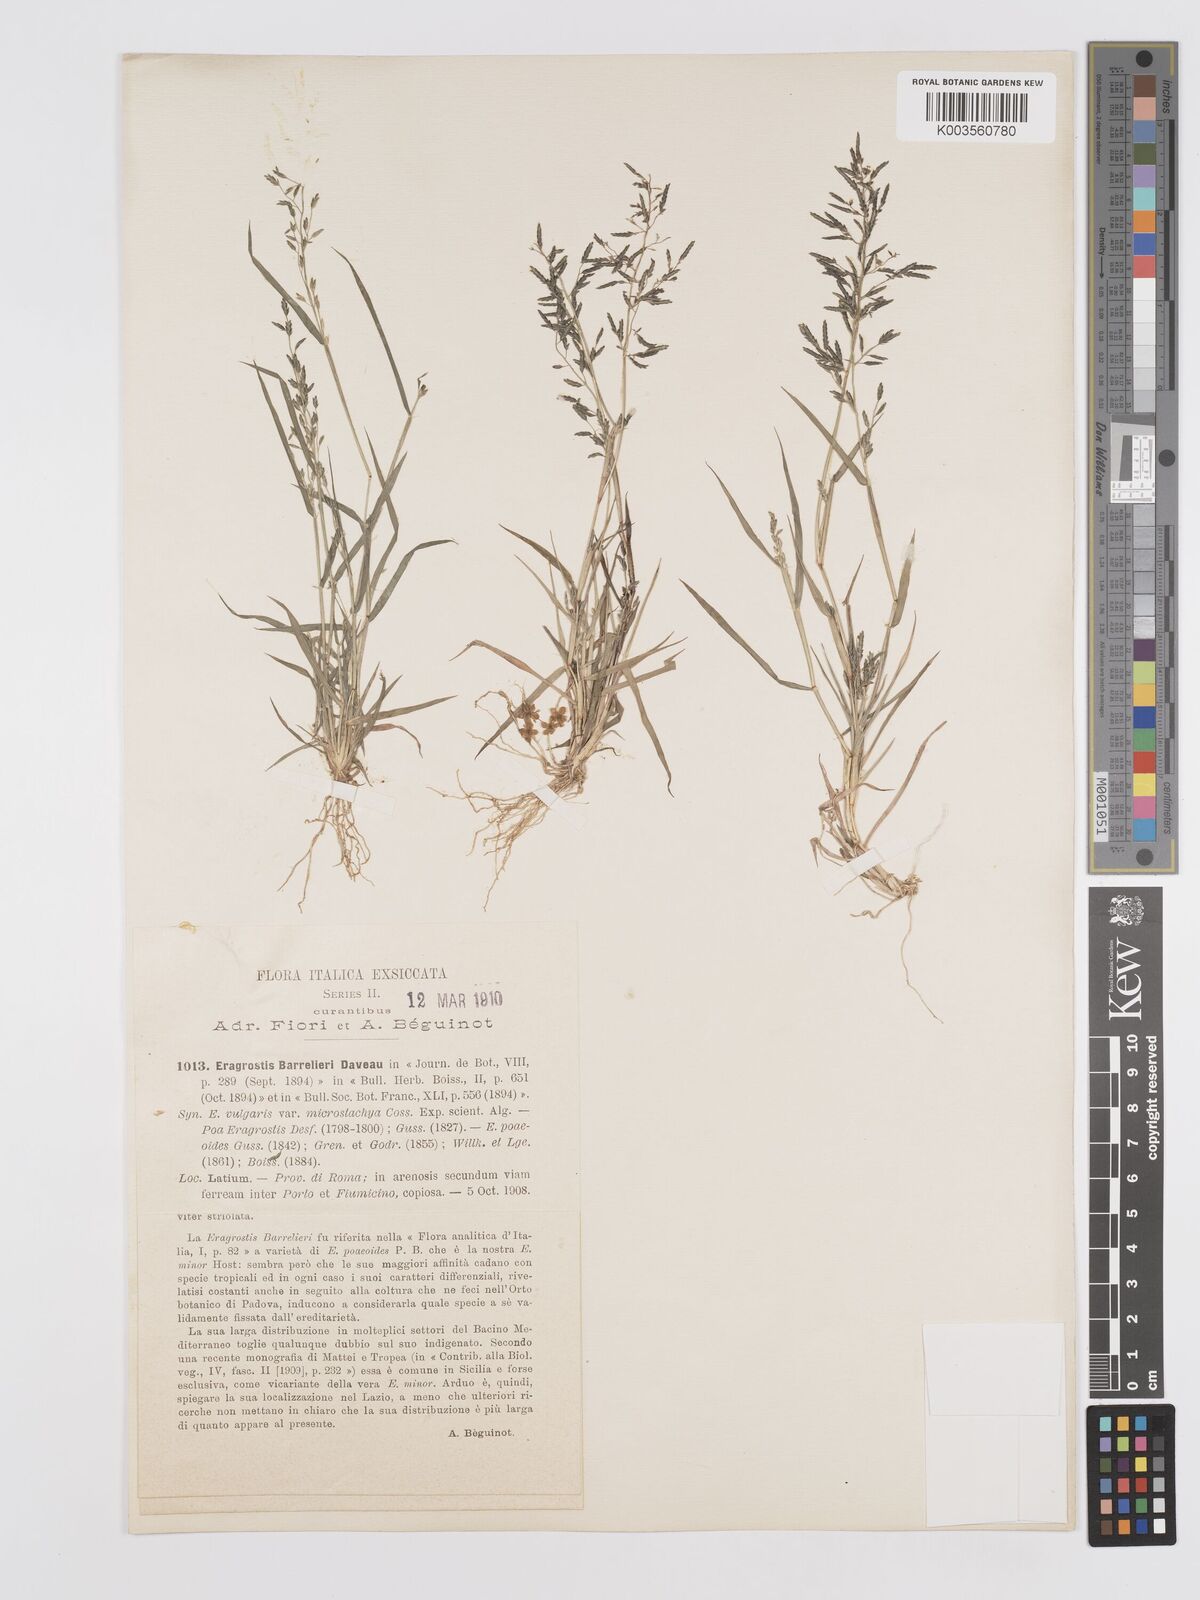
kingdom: Plantae
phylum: Tracheophyta
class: Liliopsida
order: Poales
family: Poaceae
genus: Eragrostis
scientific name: Eragrostis barrelieri
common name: Mediterranean lovegrass
